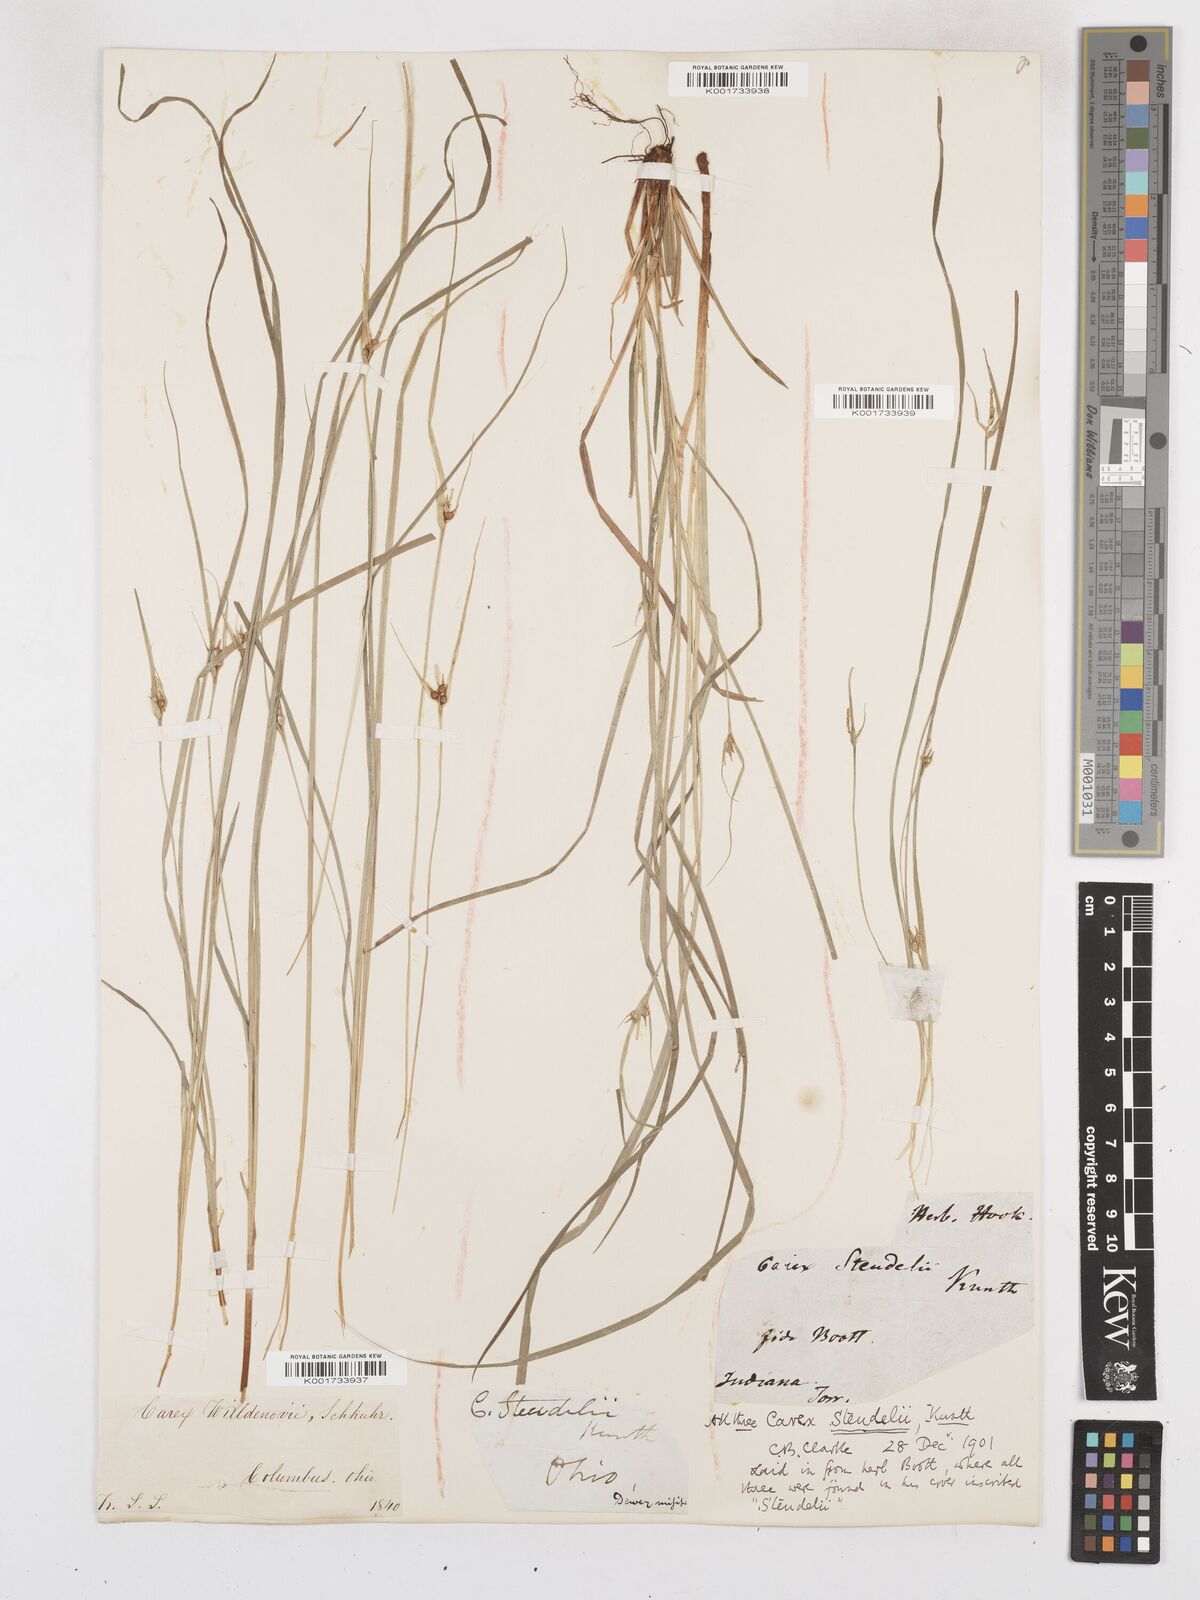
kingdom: Plantae
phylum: Tracheophyta
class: Liliopsida
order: Poales
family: Cyperaceae
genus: Carex
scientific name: Carex jamesii
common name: Grass sedge
